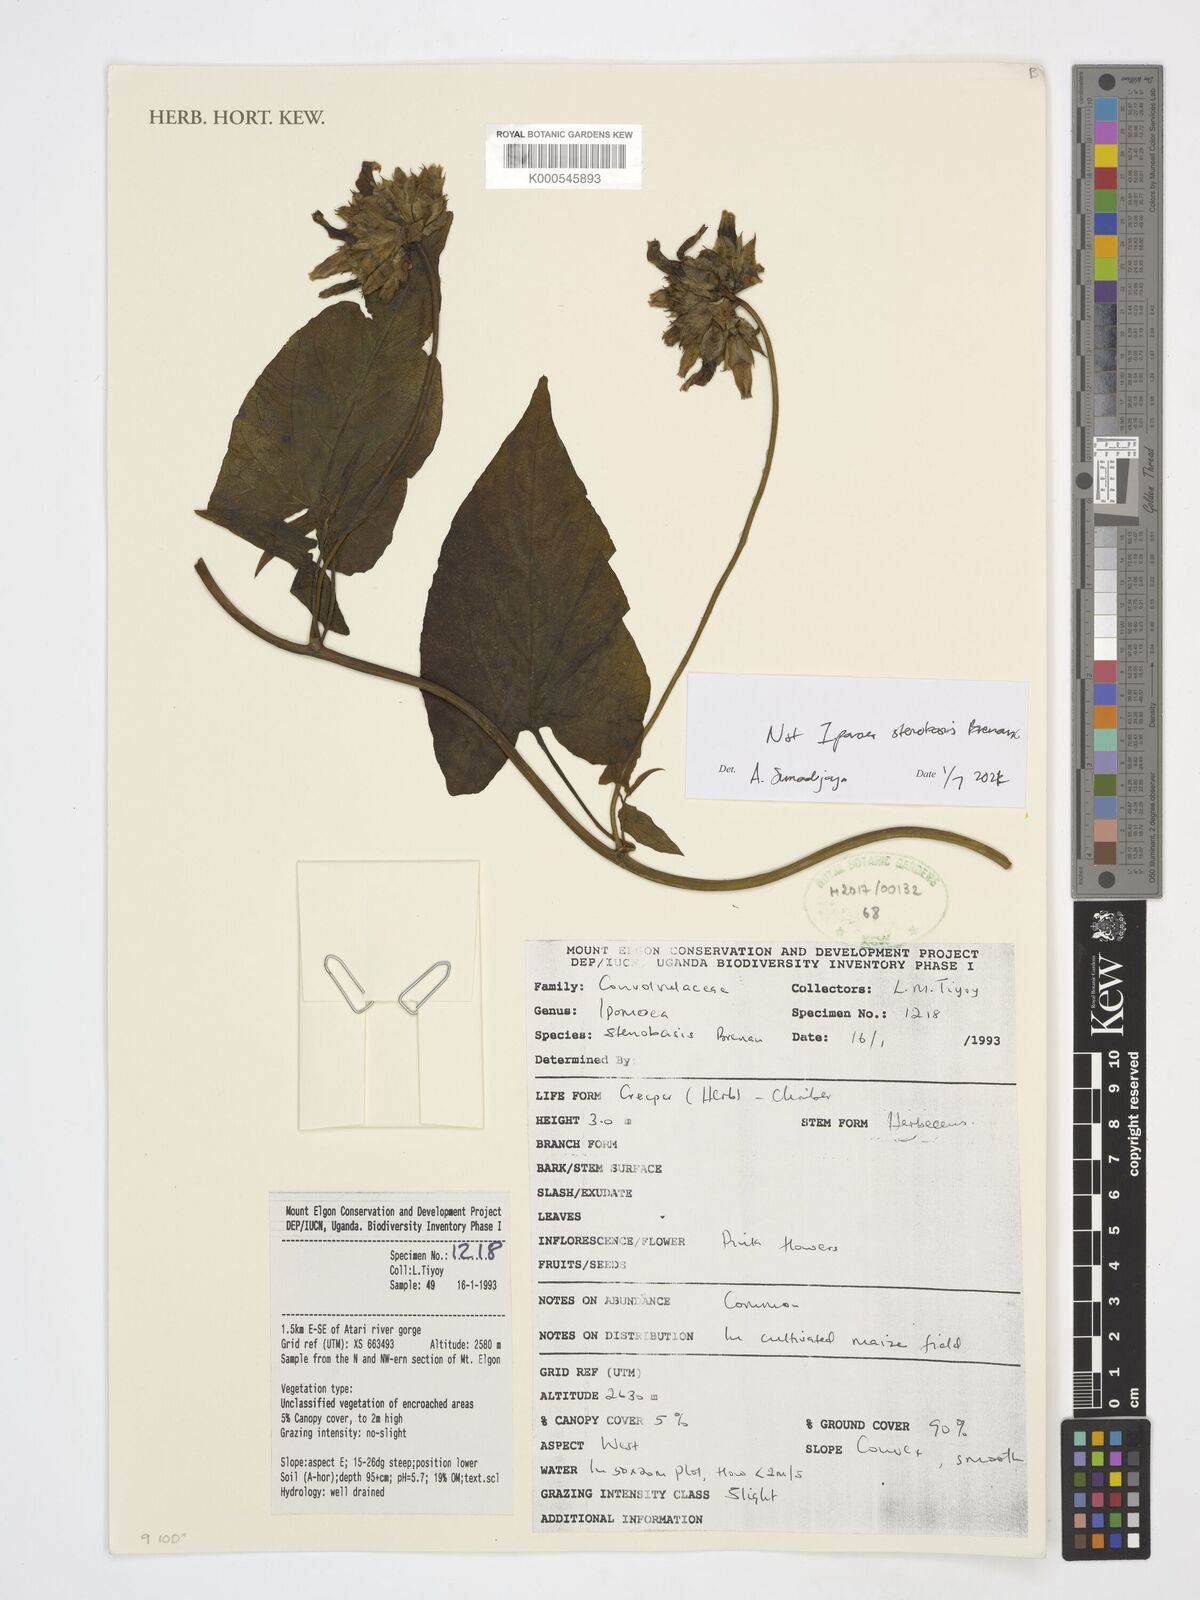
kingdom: Plantae
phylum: Tracheophyta
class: Magnoliopsida
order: Solanales
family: Convolvulaceae
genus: Ipomoea
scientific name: Ipomoea stenobasis
